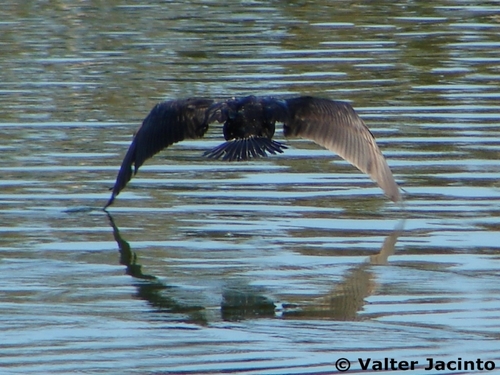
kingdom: Animalia
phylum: Chordata
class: Aves
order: Suliformes
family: Phalacrocoracidae
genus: Phalacrocorax
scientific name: Phalacrocorax carbo
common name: Great cormorant
